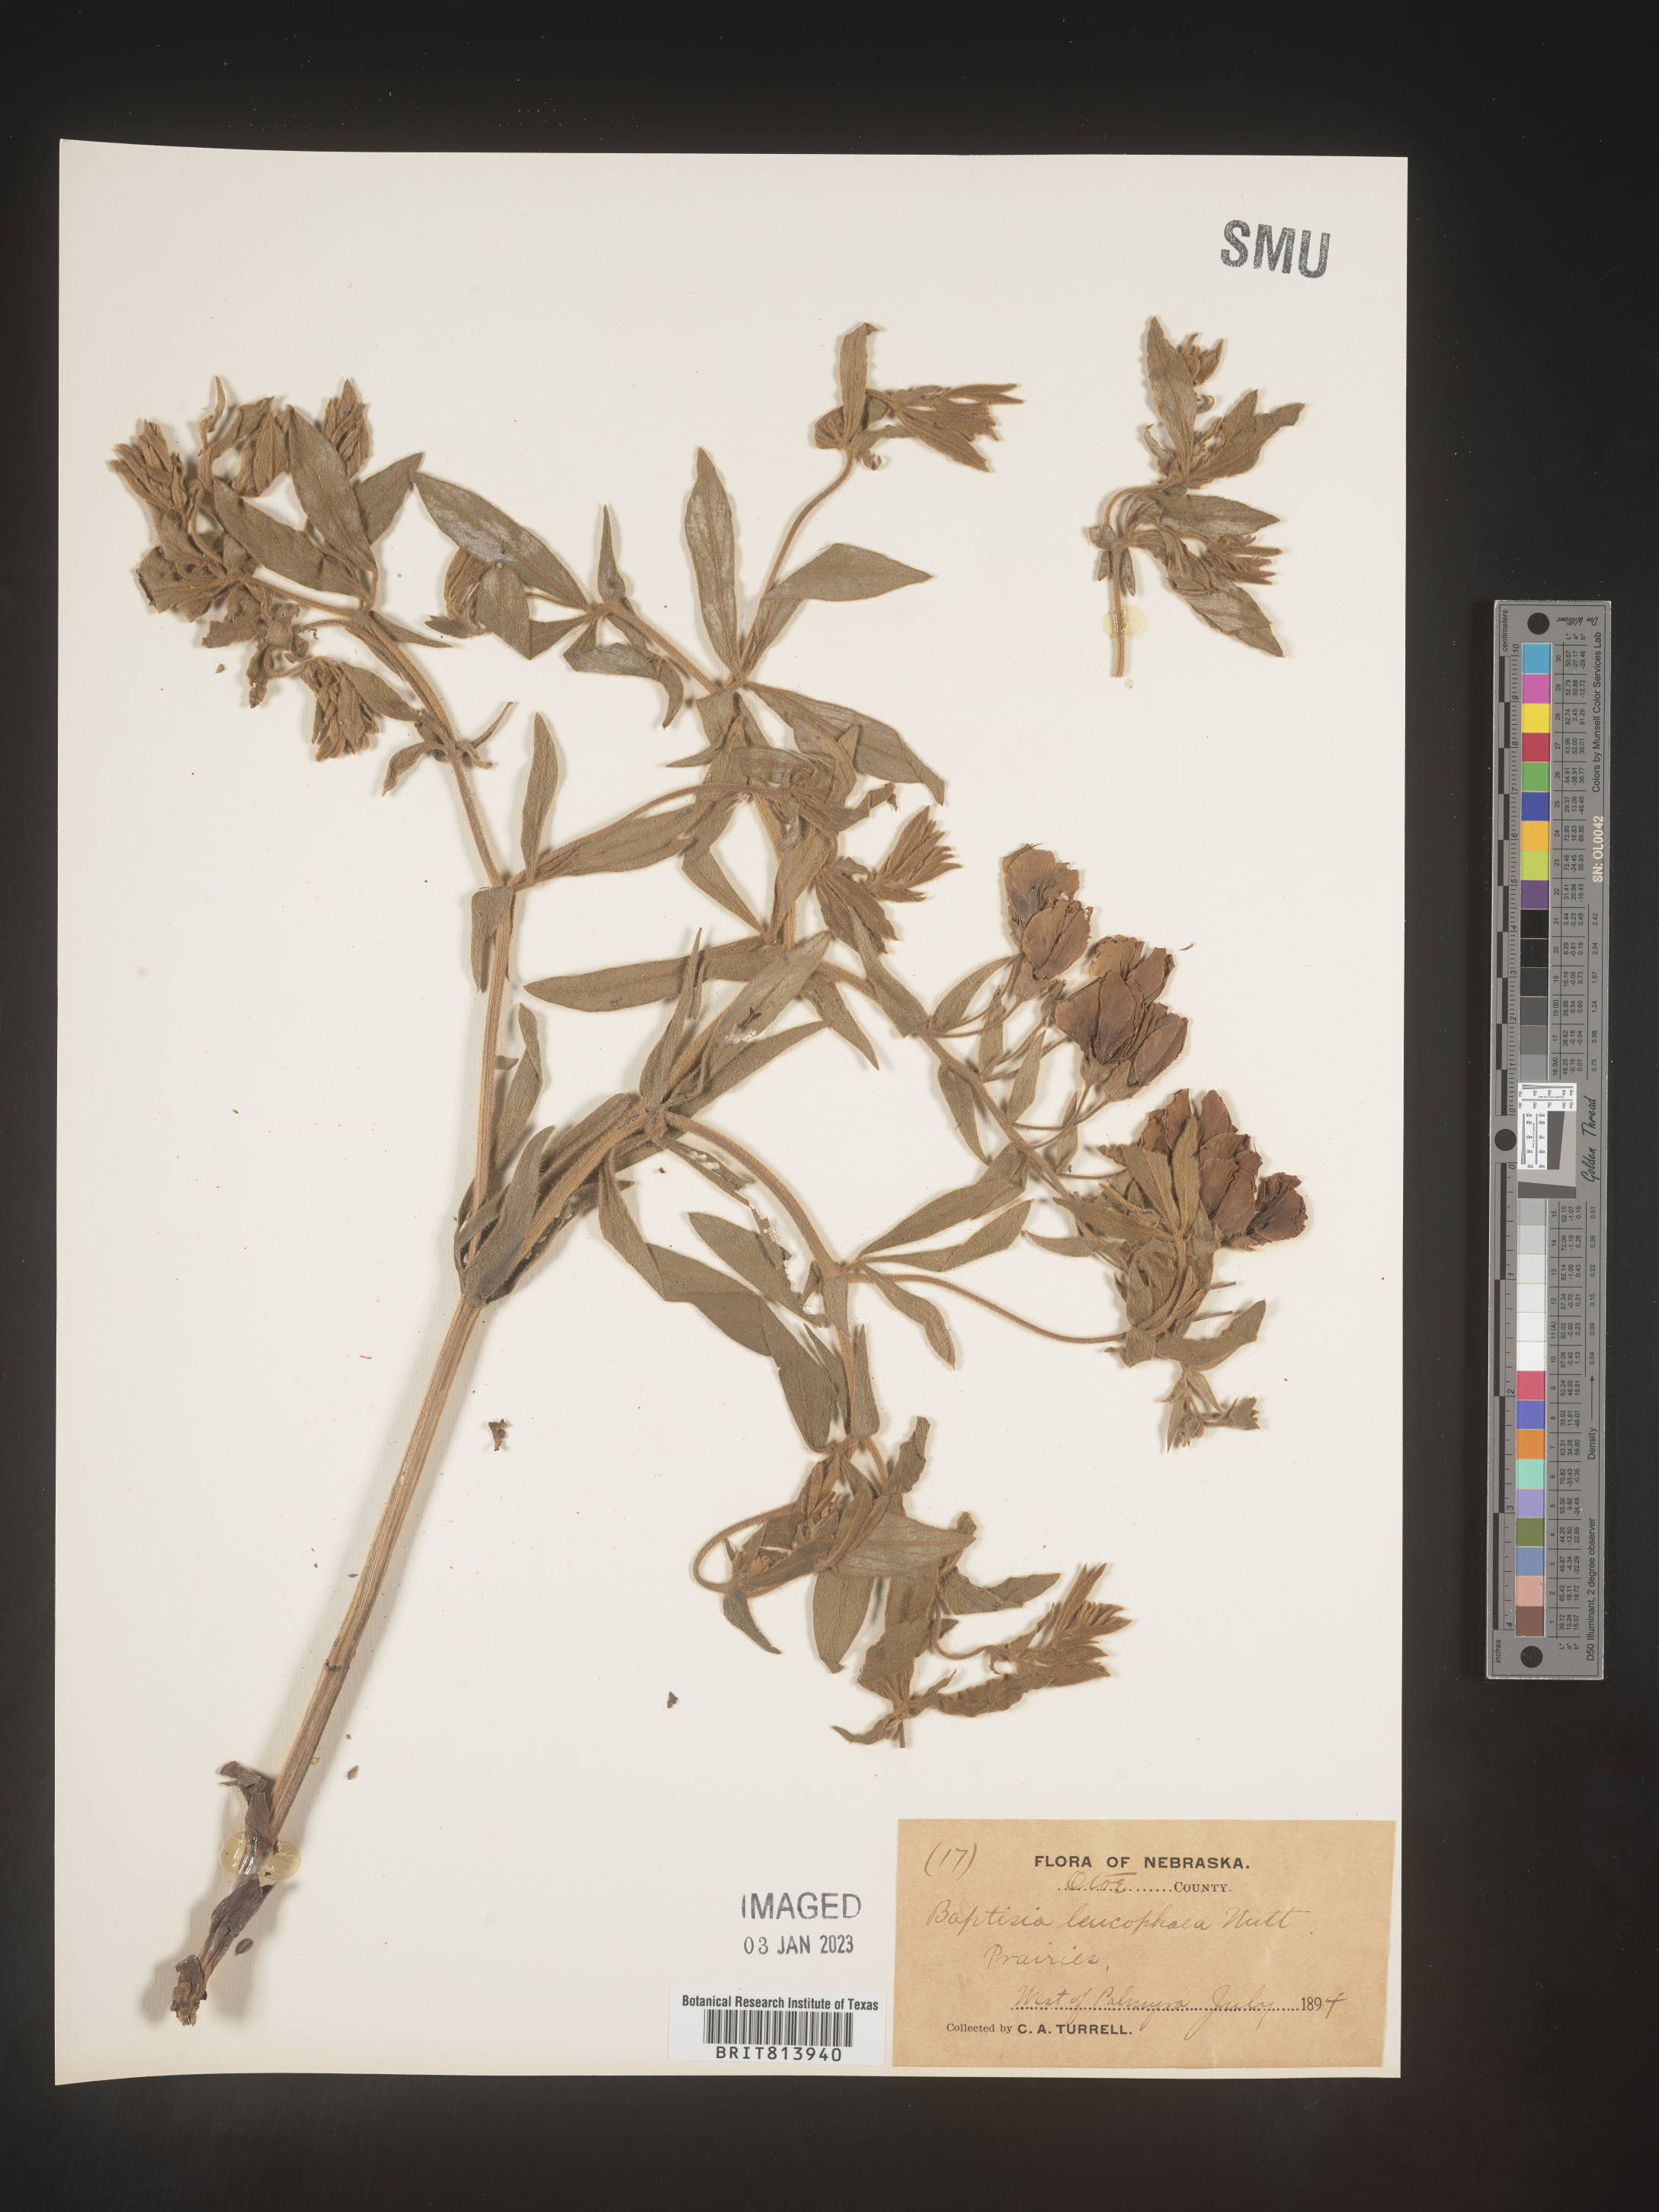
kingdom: Plantae
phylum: Tracheophyta
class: Magnoliopsida
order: Fabales
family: Fabaceae
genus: Baptisia
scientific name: Baptisia bracteata
